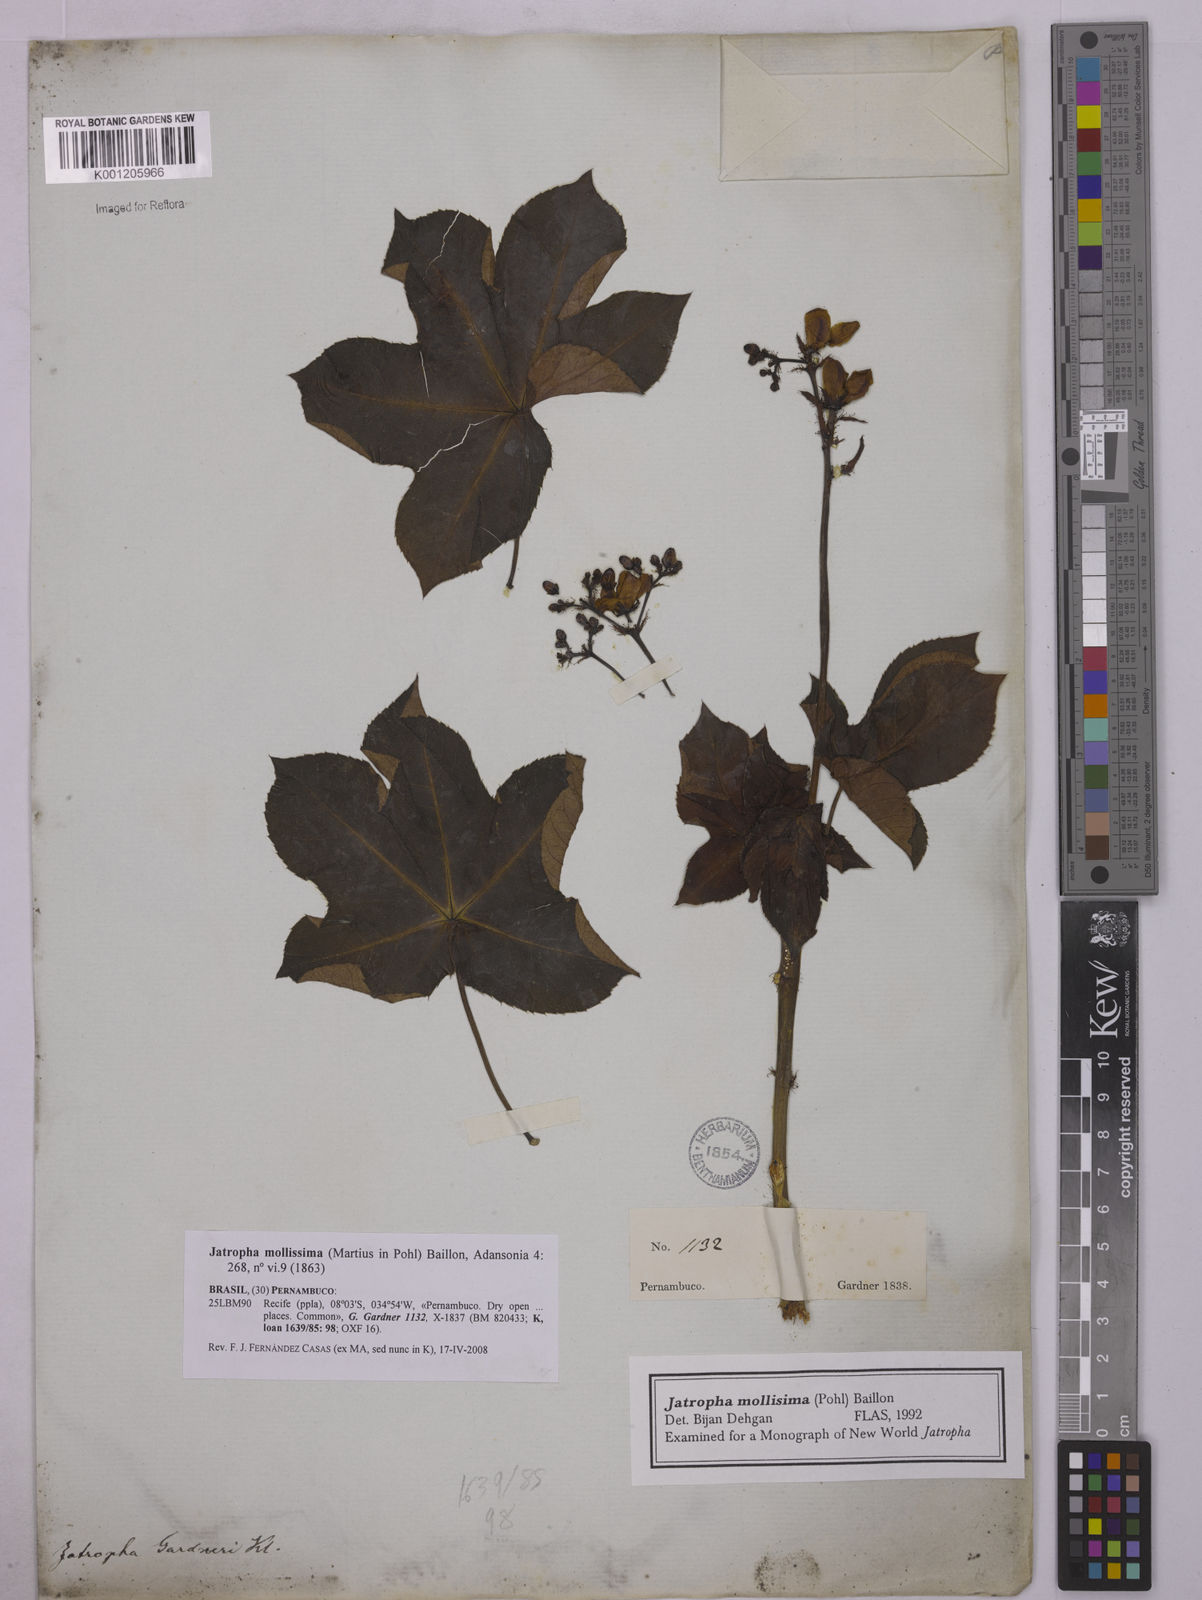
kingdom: Plantae
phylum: Tracheophyta
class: Magnoliopsida
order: Malpighiales
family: Euphorbiaceae
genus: Jatropha
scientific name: Jatropha mollissima
